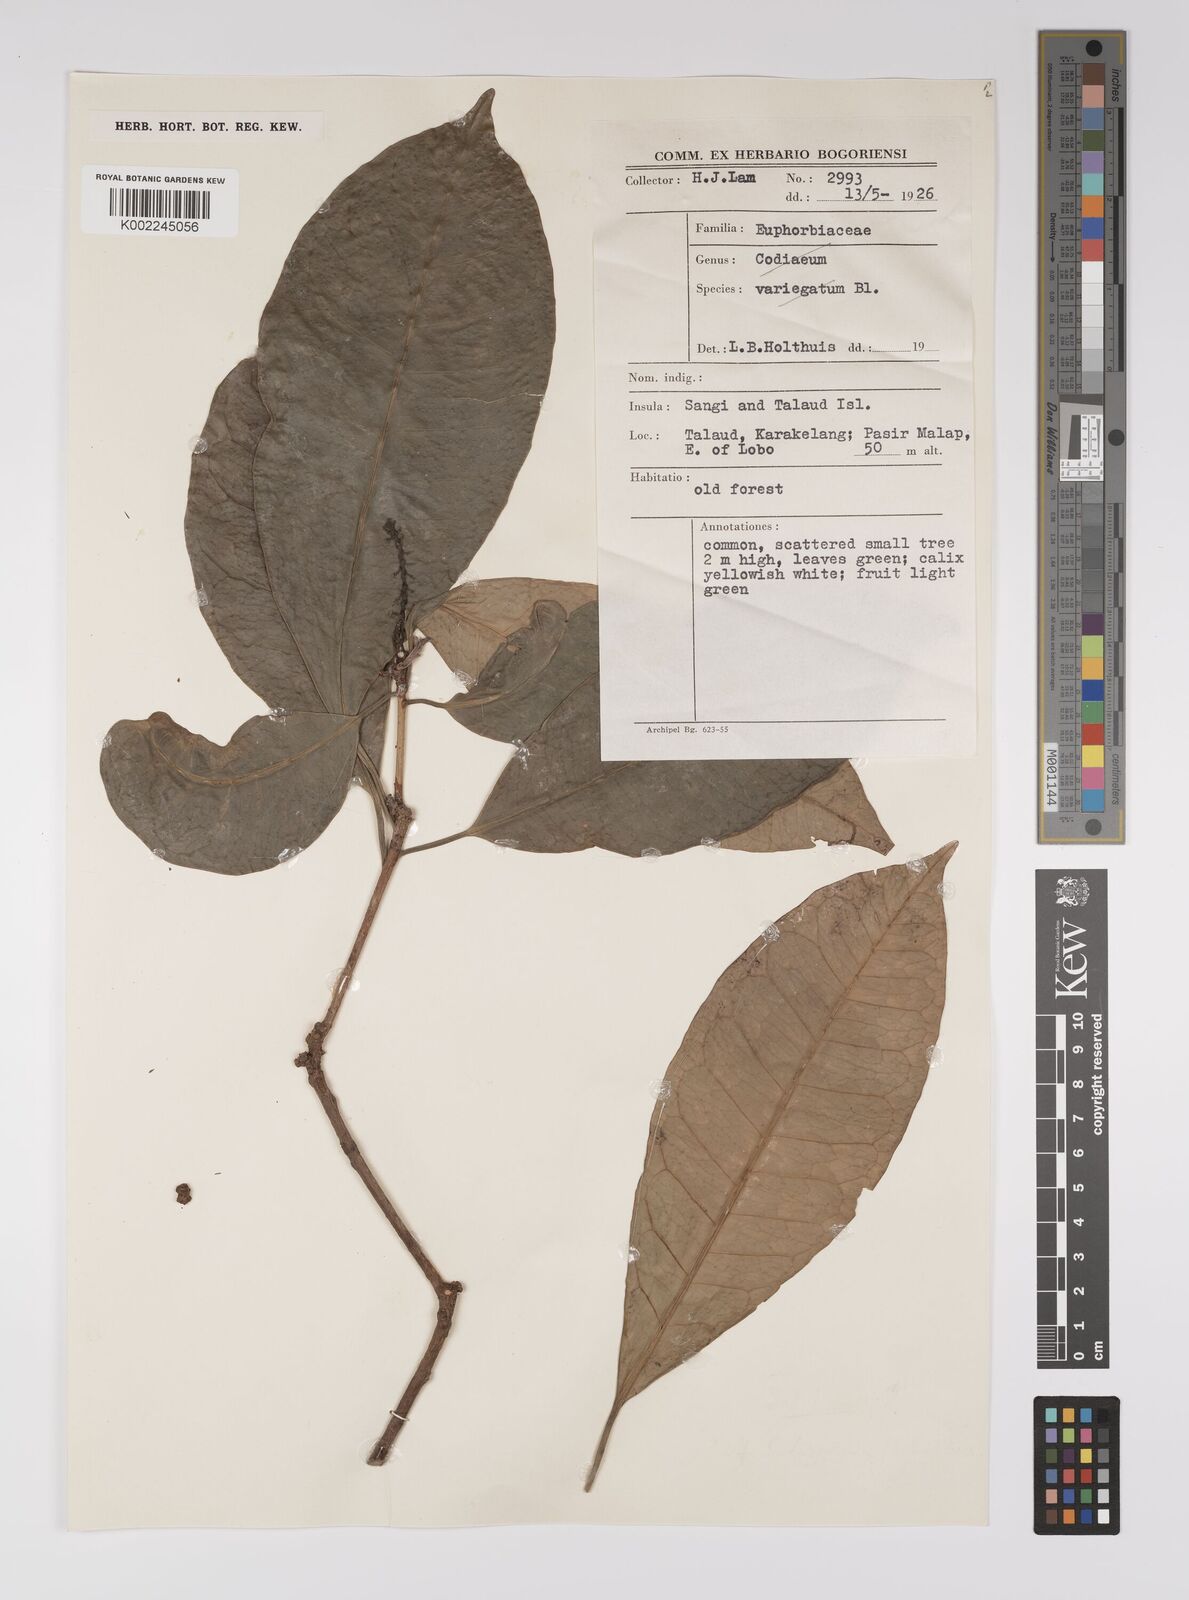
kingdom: Plantae
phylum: Tracheophyta
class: Magnoliopsida
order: Malpighiales
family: Euphorbiaceae
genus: Excoecaria
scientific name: Excoecaria borneensis
